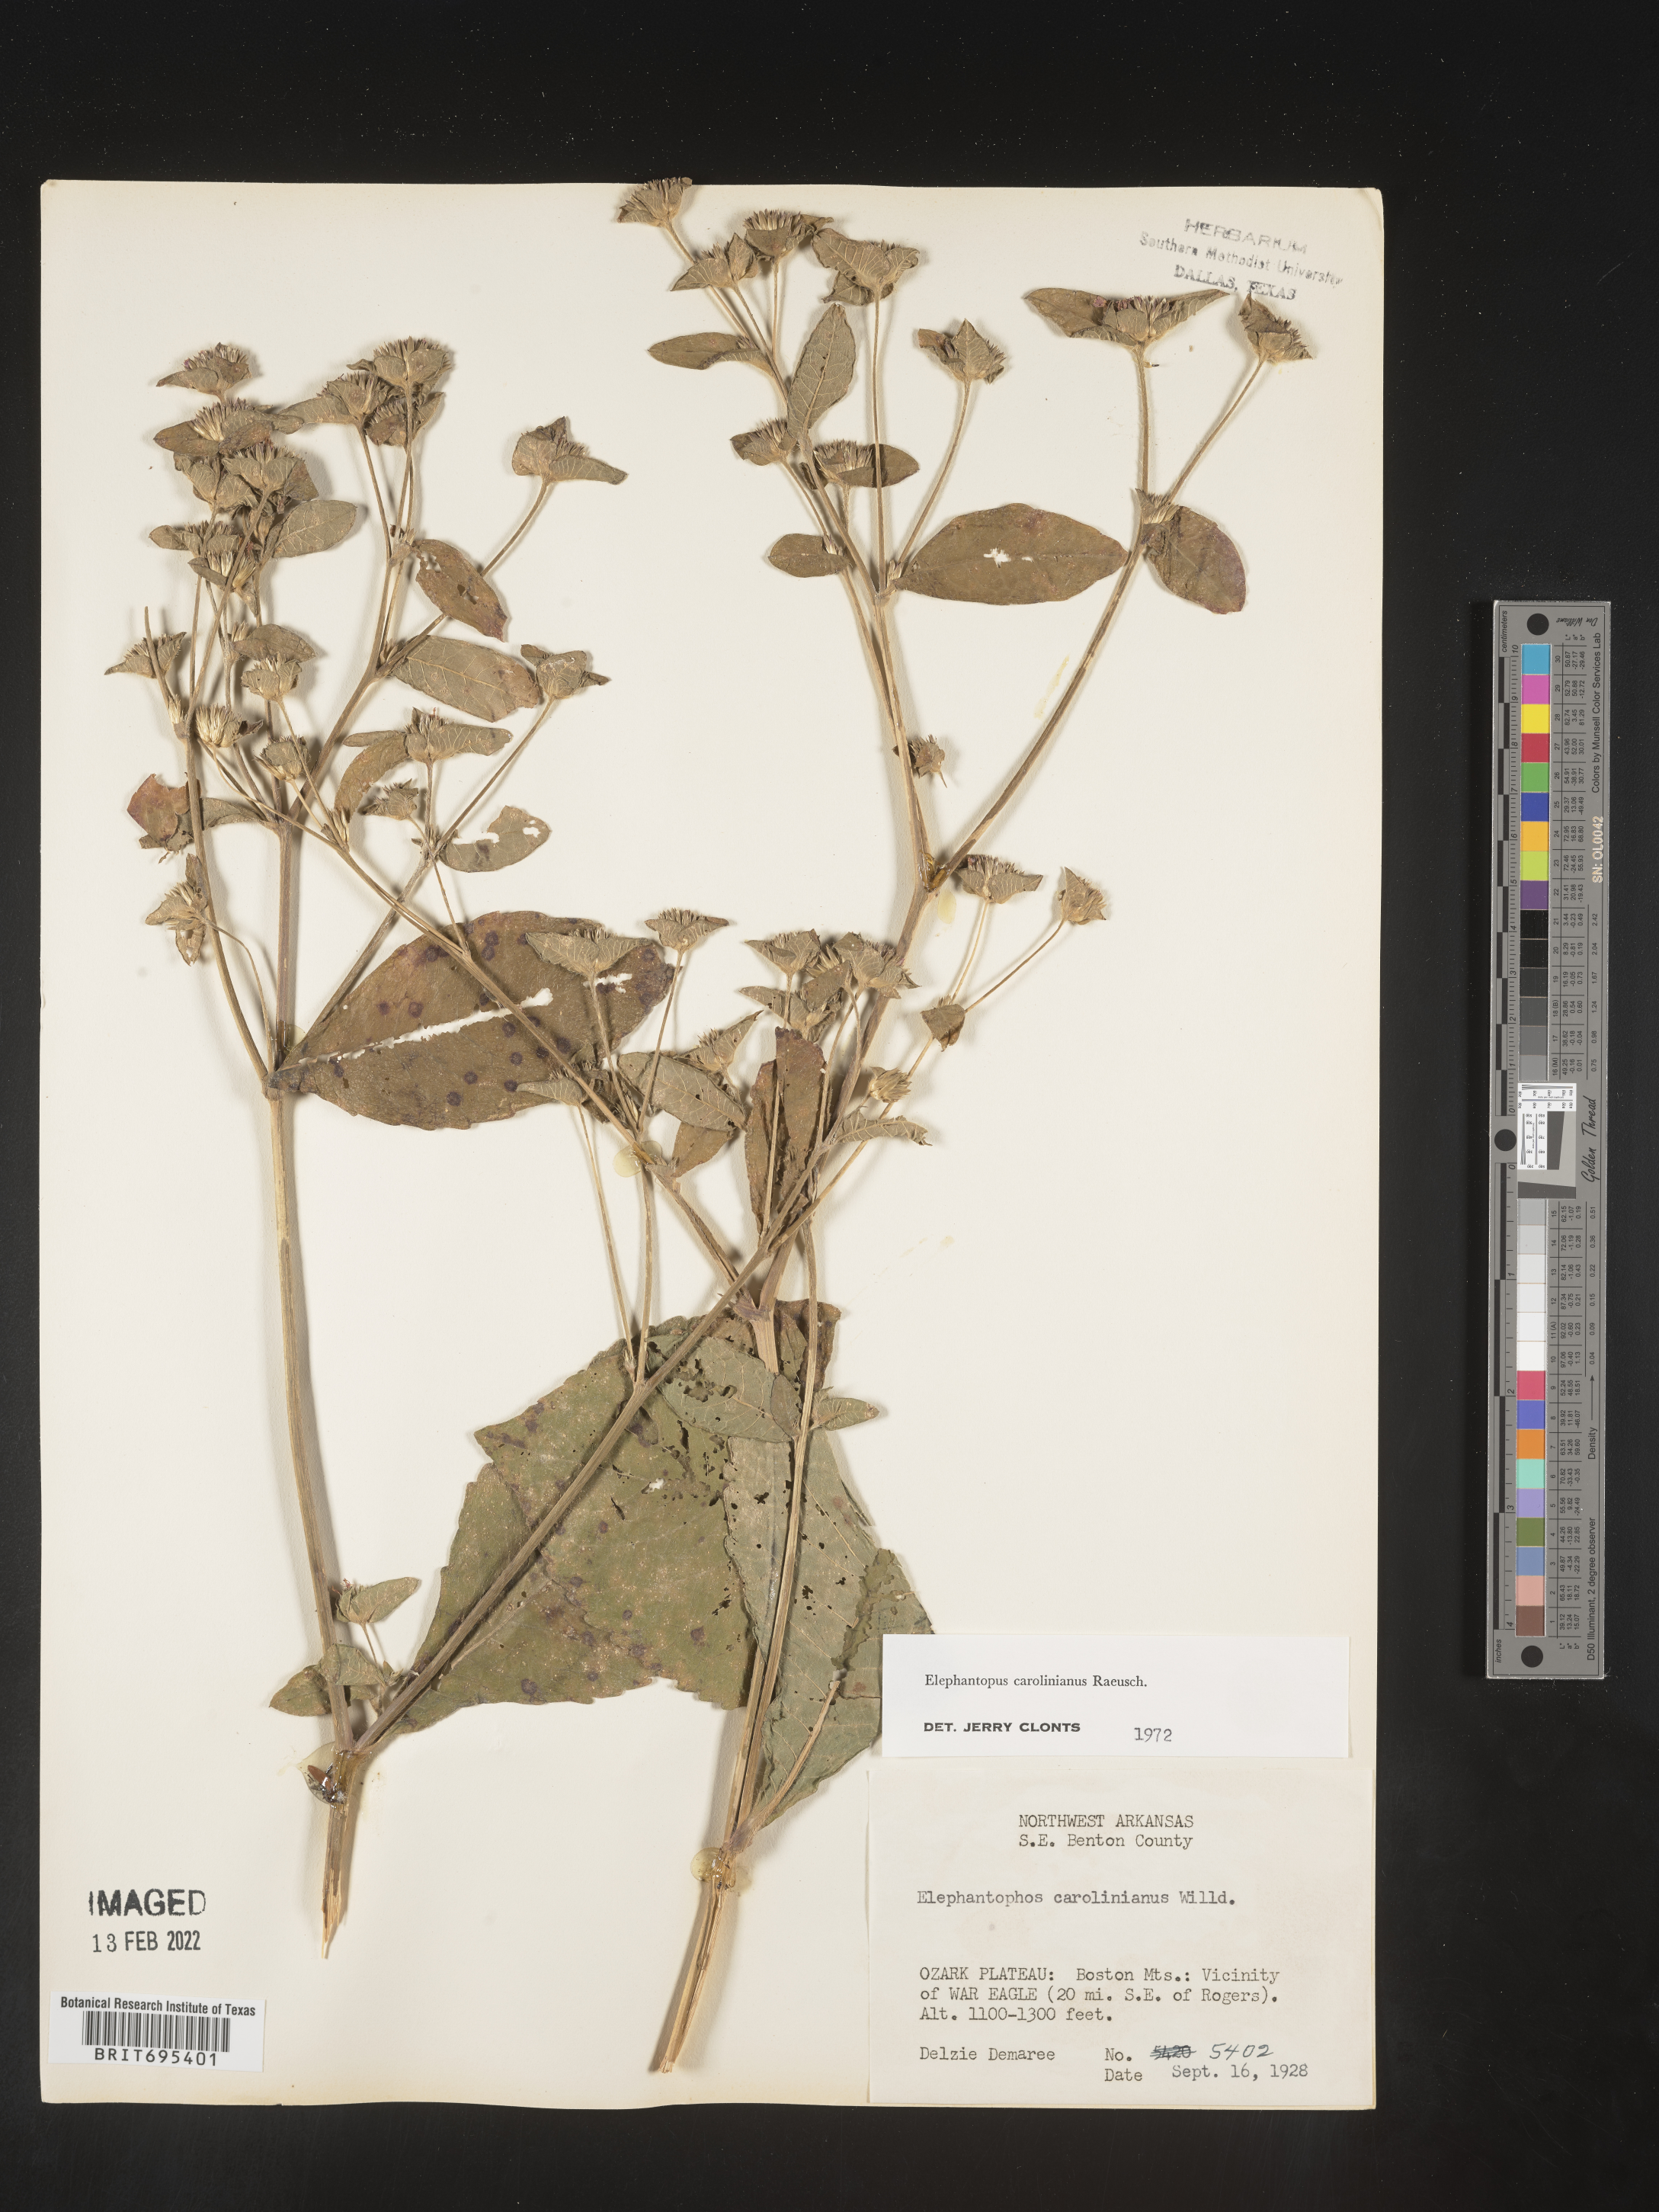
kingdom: Plantae
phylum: Tracheophyta
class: Magnoliopsida
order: Asterales
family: Asteraceae
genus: Elephantopus
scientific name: Elephantopus carolinianus
